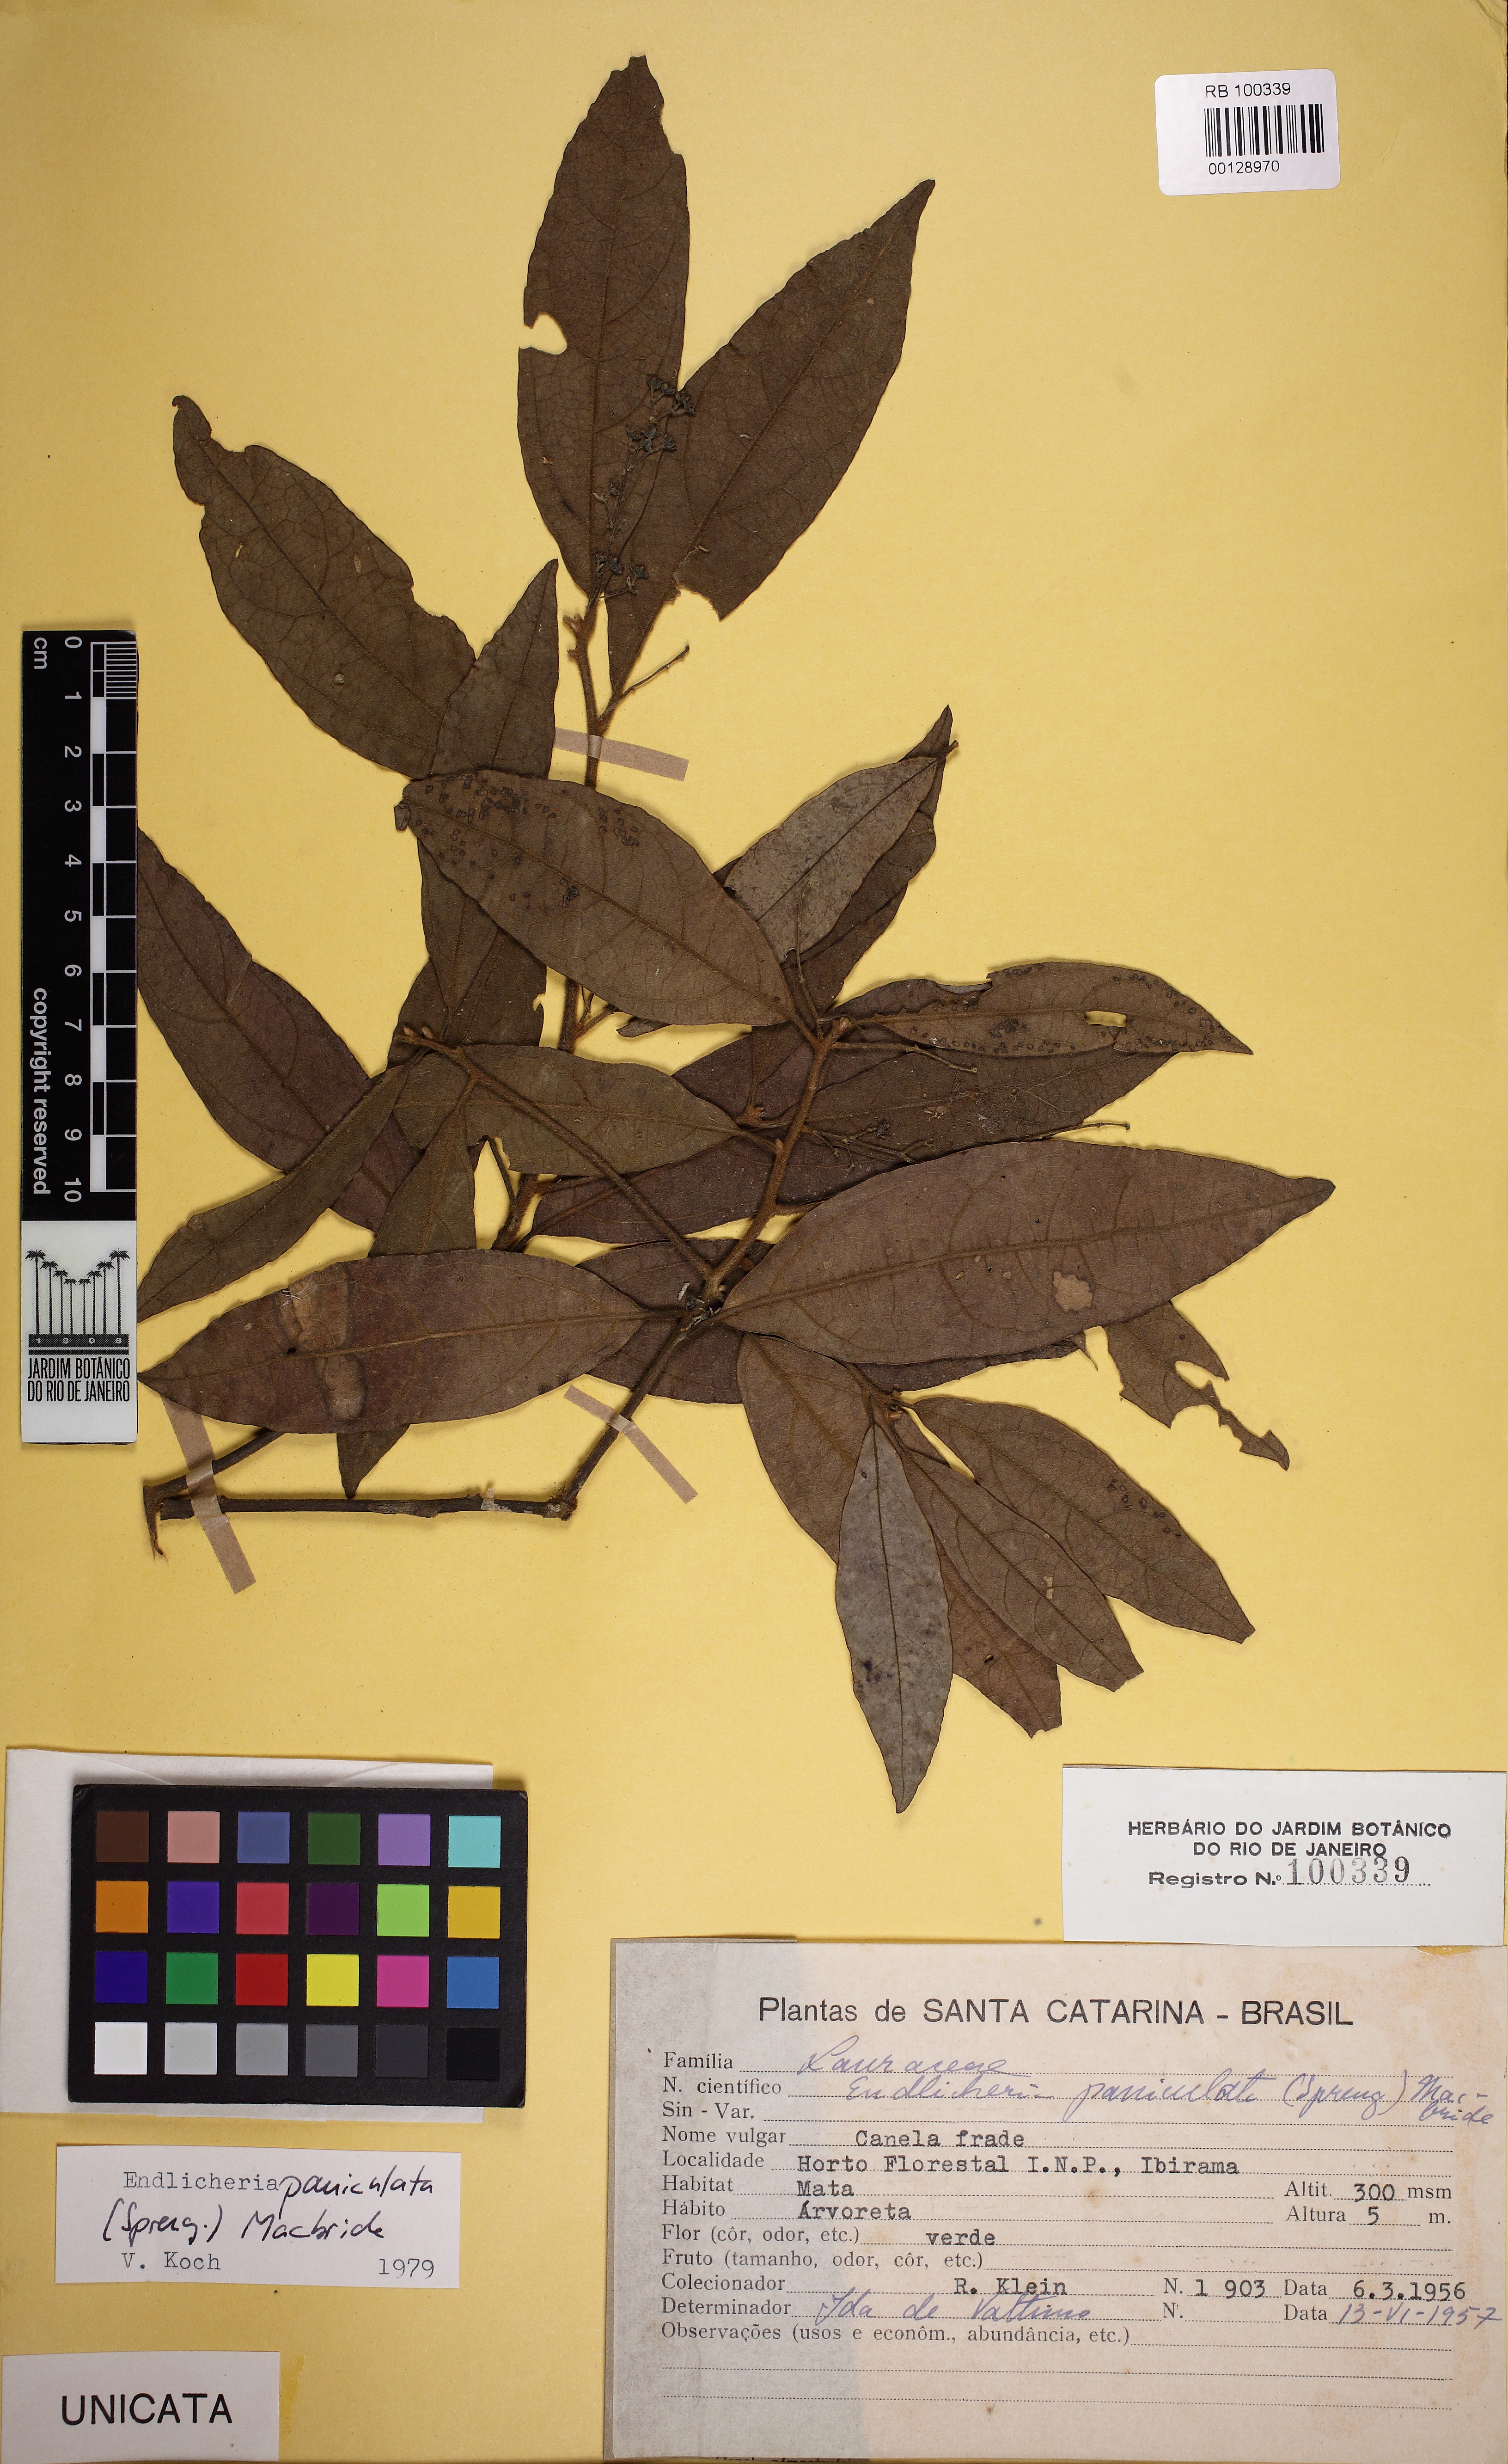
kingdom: Plantae
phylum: Tracheophyta
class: Magnoliopsida
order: Laurales
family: Lauraceae
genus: Endlicheria
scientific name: Endlicheria paniculata
